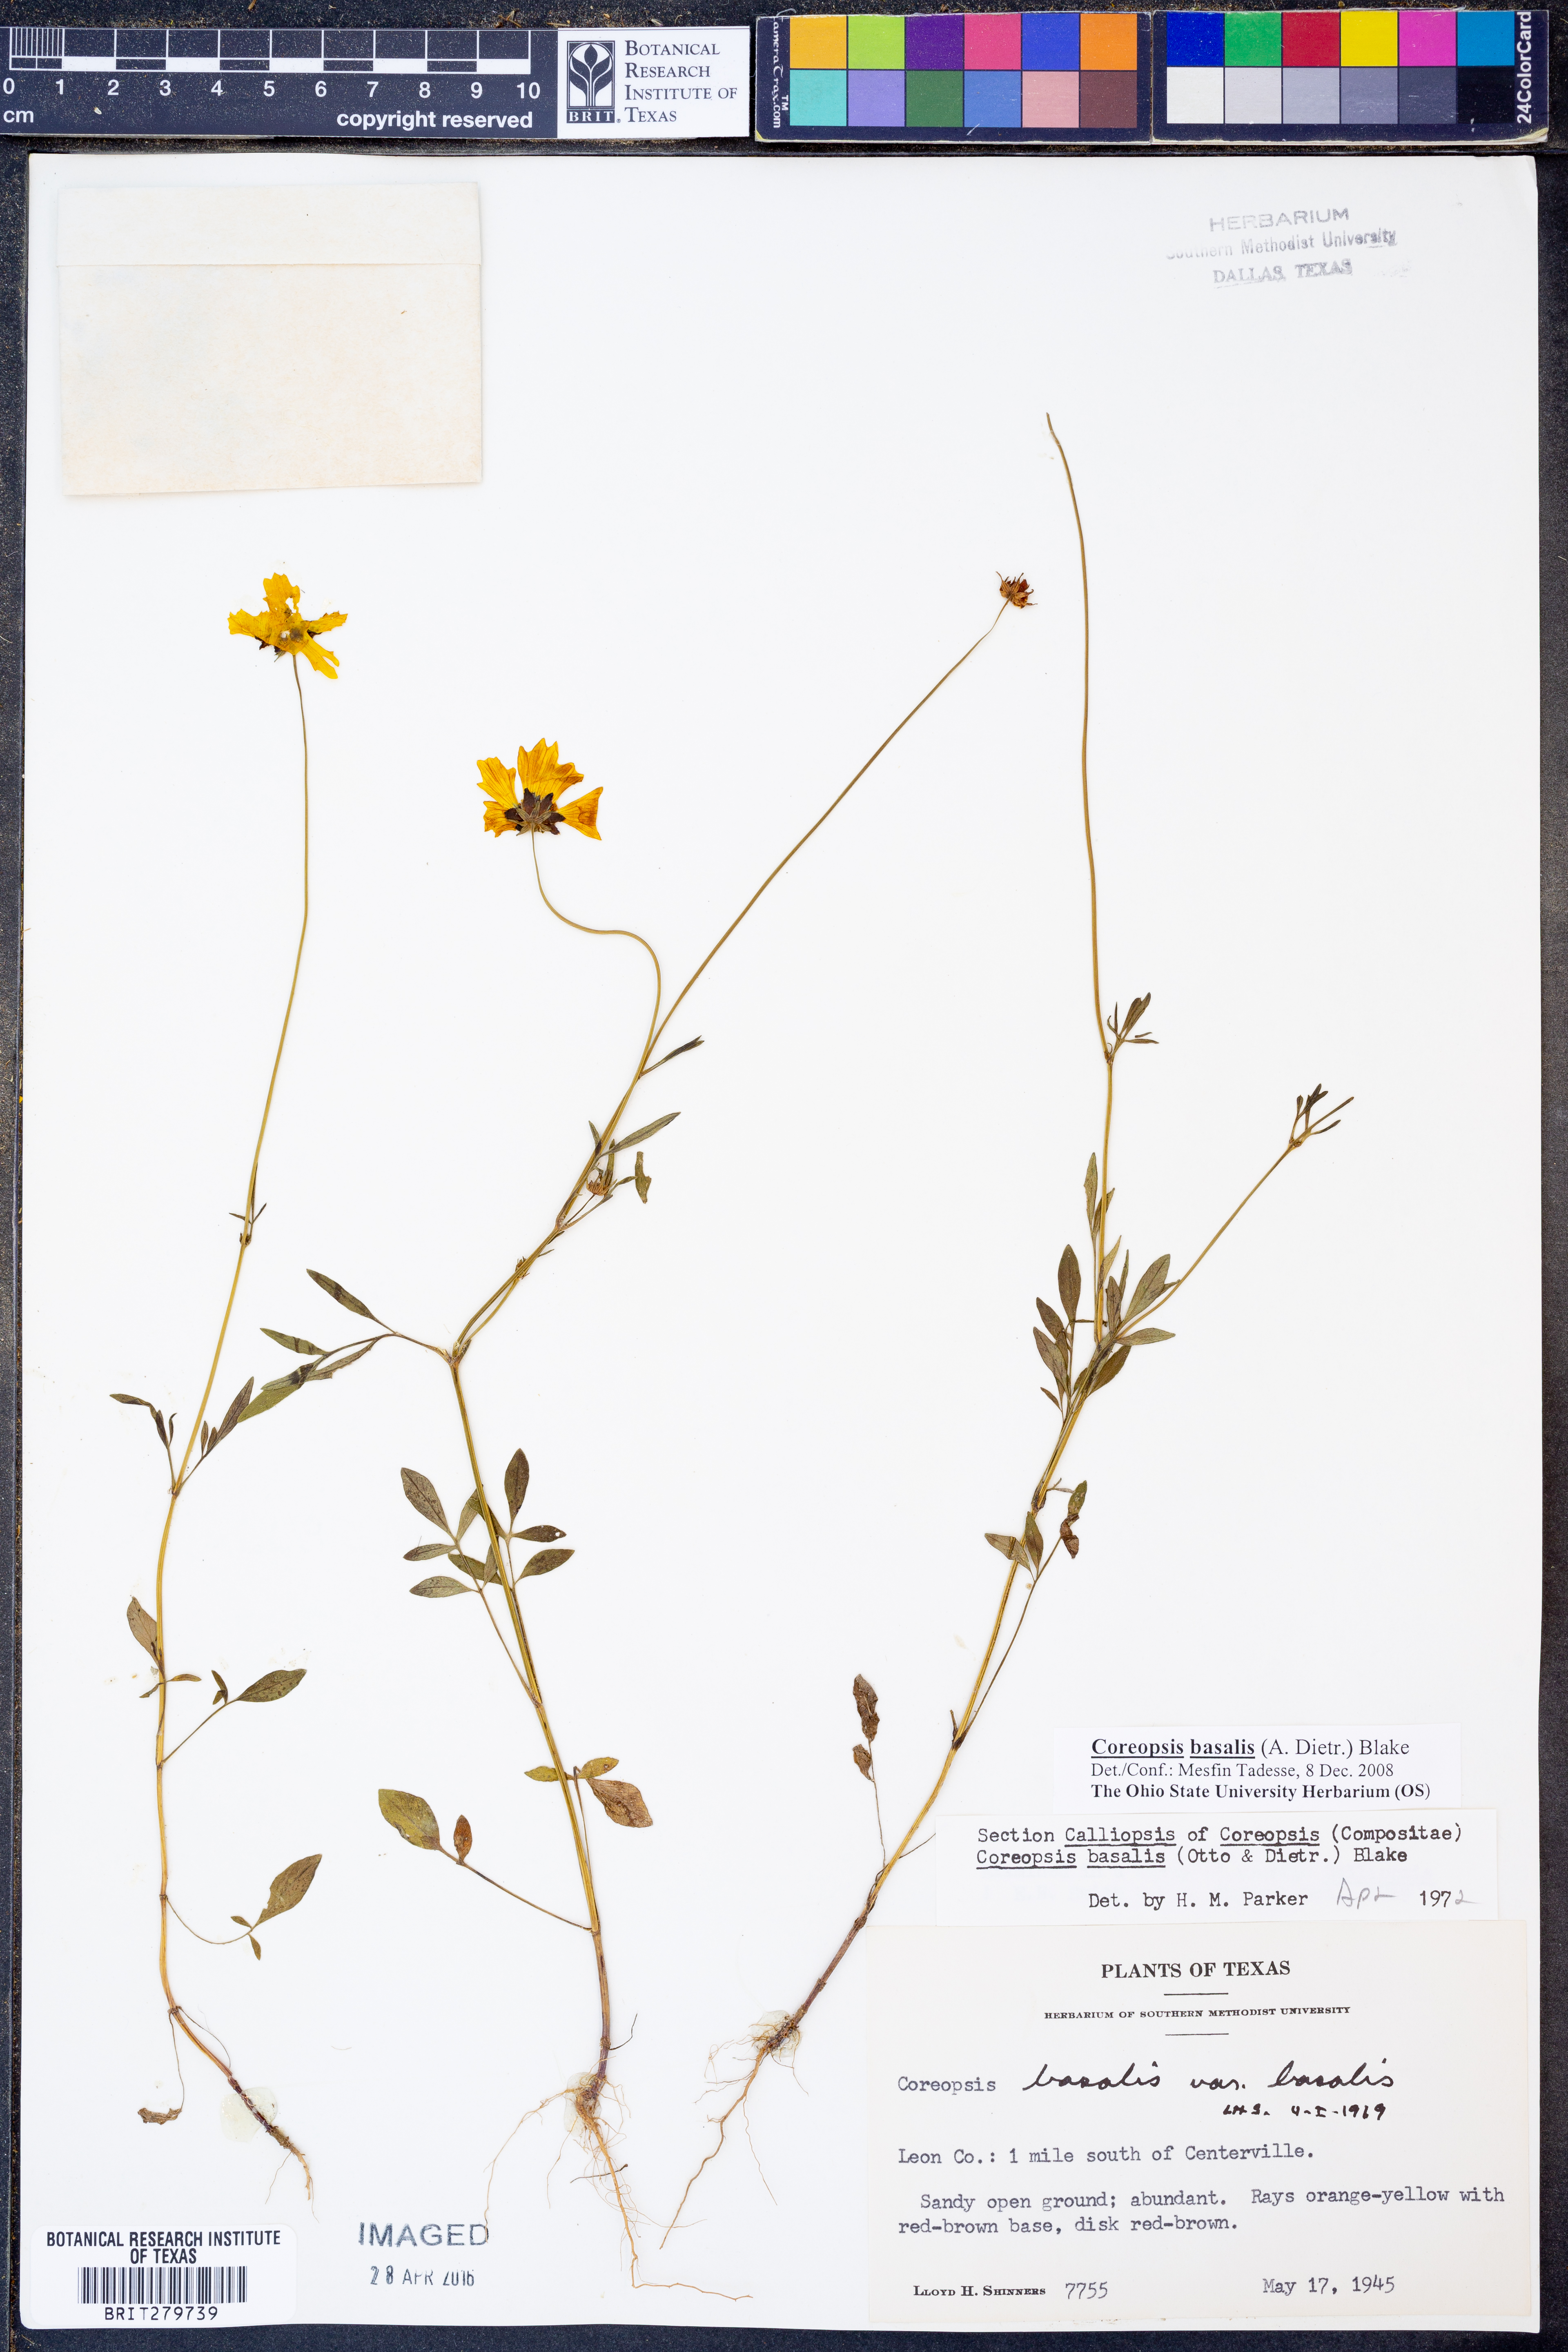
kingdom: Plantae
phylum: Tracheophyta
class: Magnoliopsida
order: Asterales
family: Asteraceae
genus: Coreopsis
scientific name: Coreopsis basalis
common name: Golden-mane coreopsis
